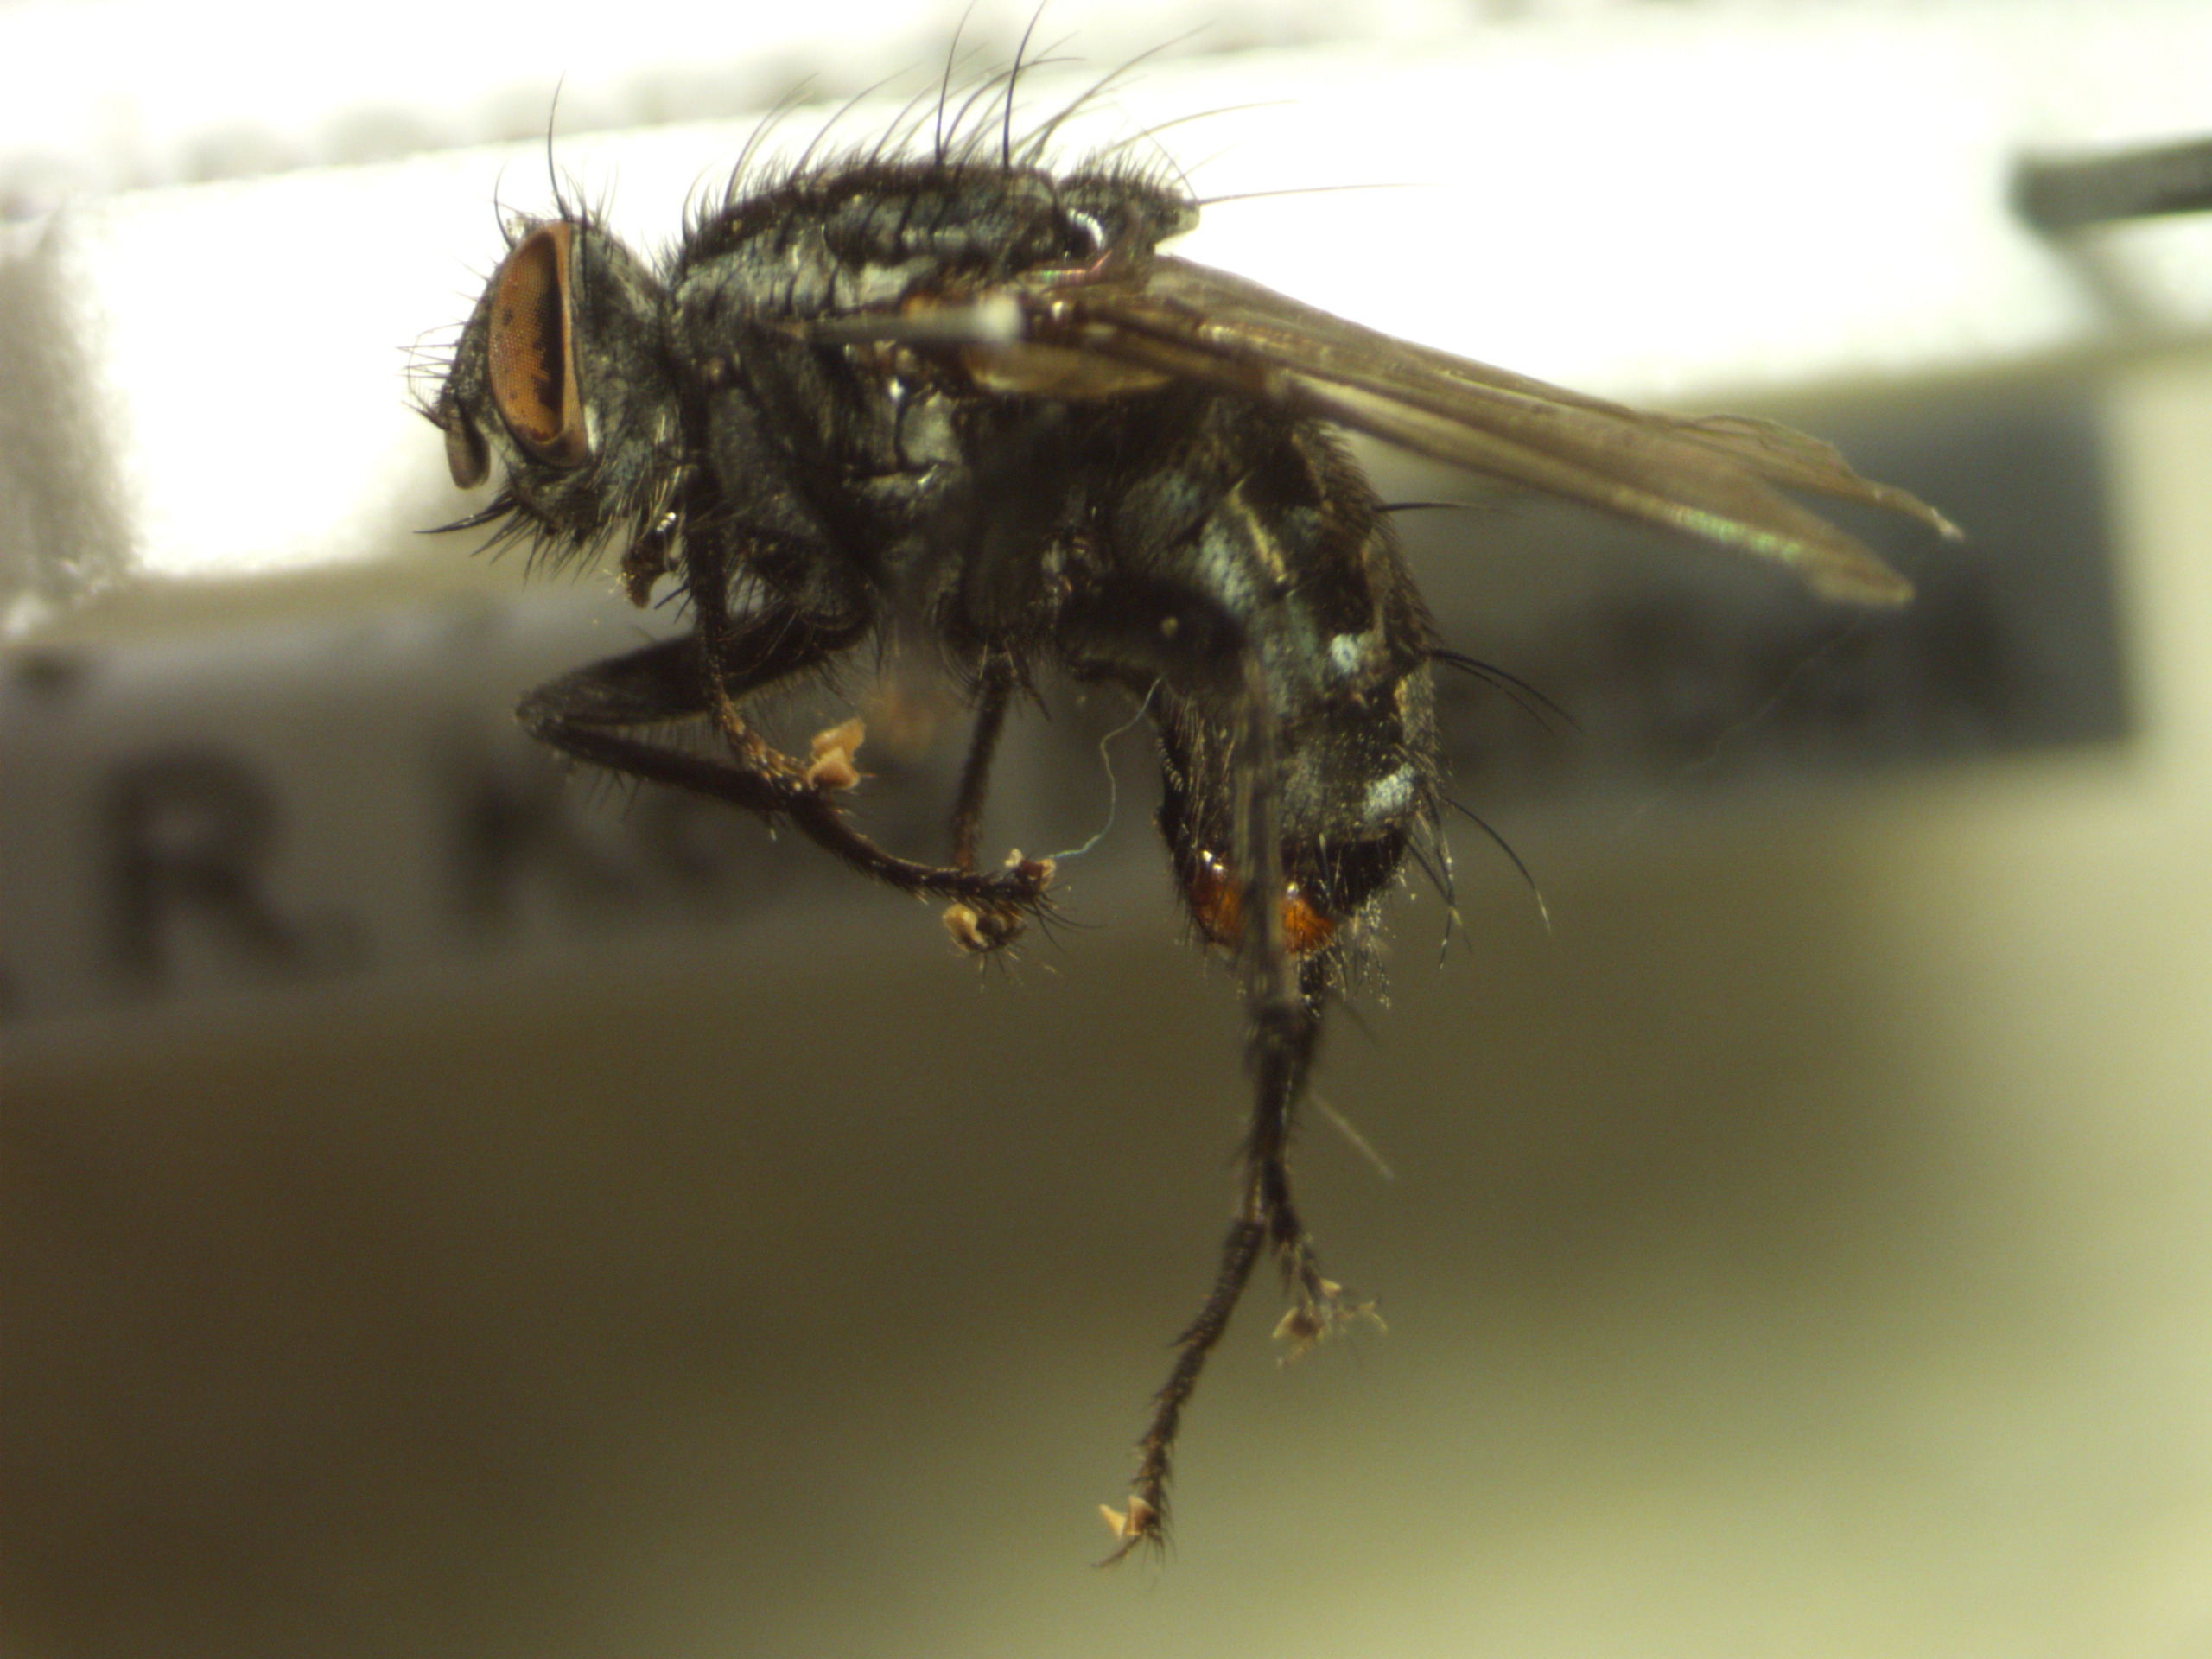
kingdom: Animalia
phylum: Arthropoda
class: Insecta
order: Diptera
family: Sarcophagidae
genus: Sarcophaga
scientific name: Sarcophaga haemorrhoa
